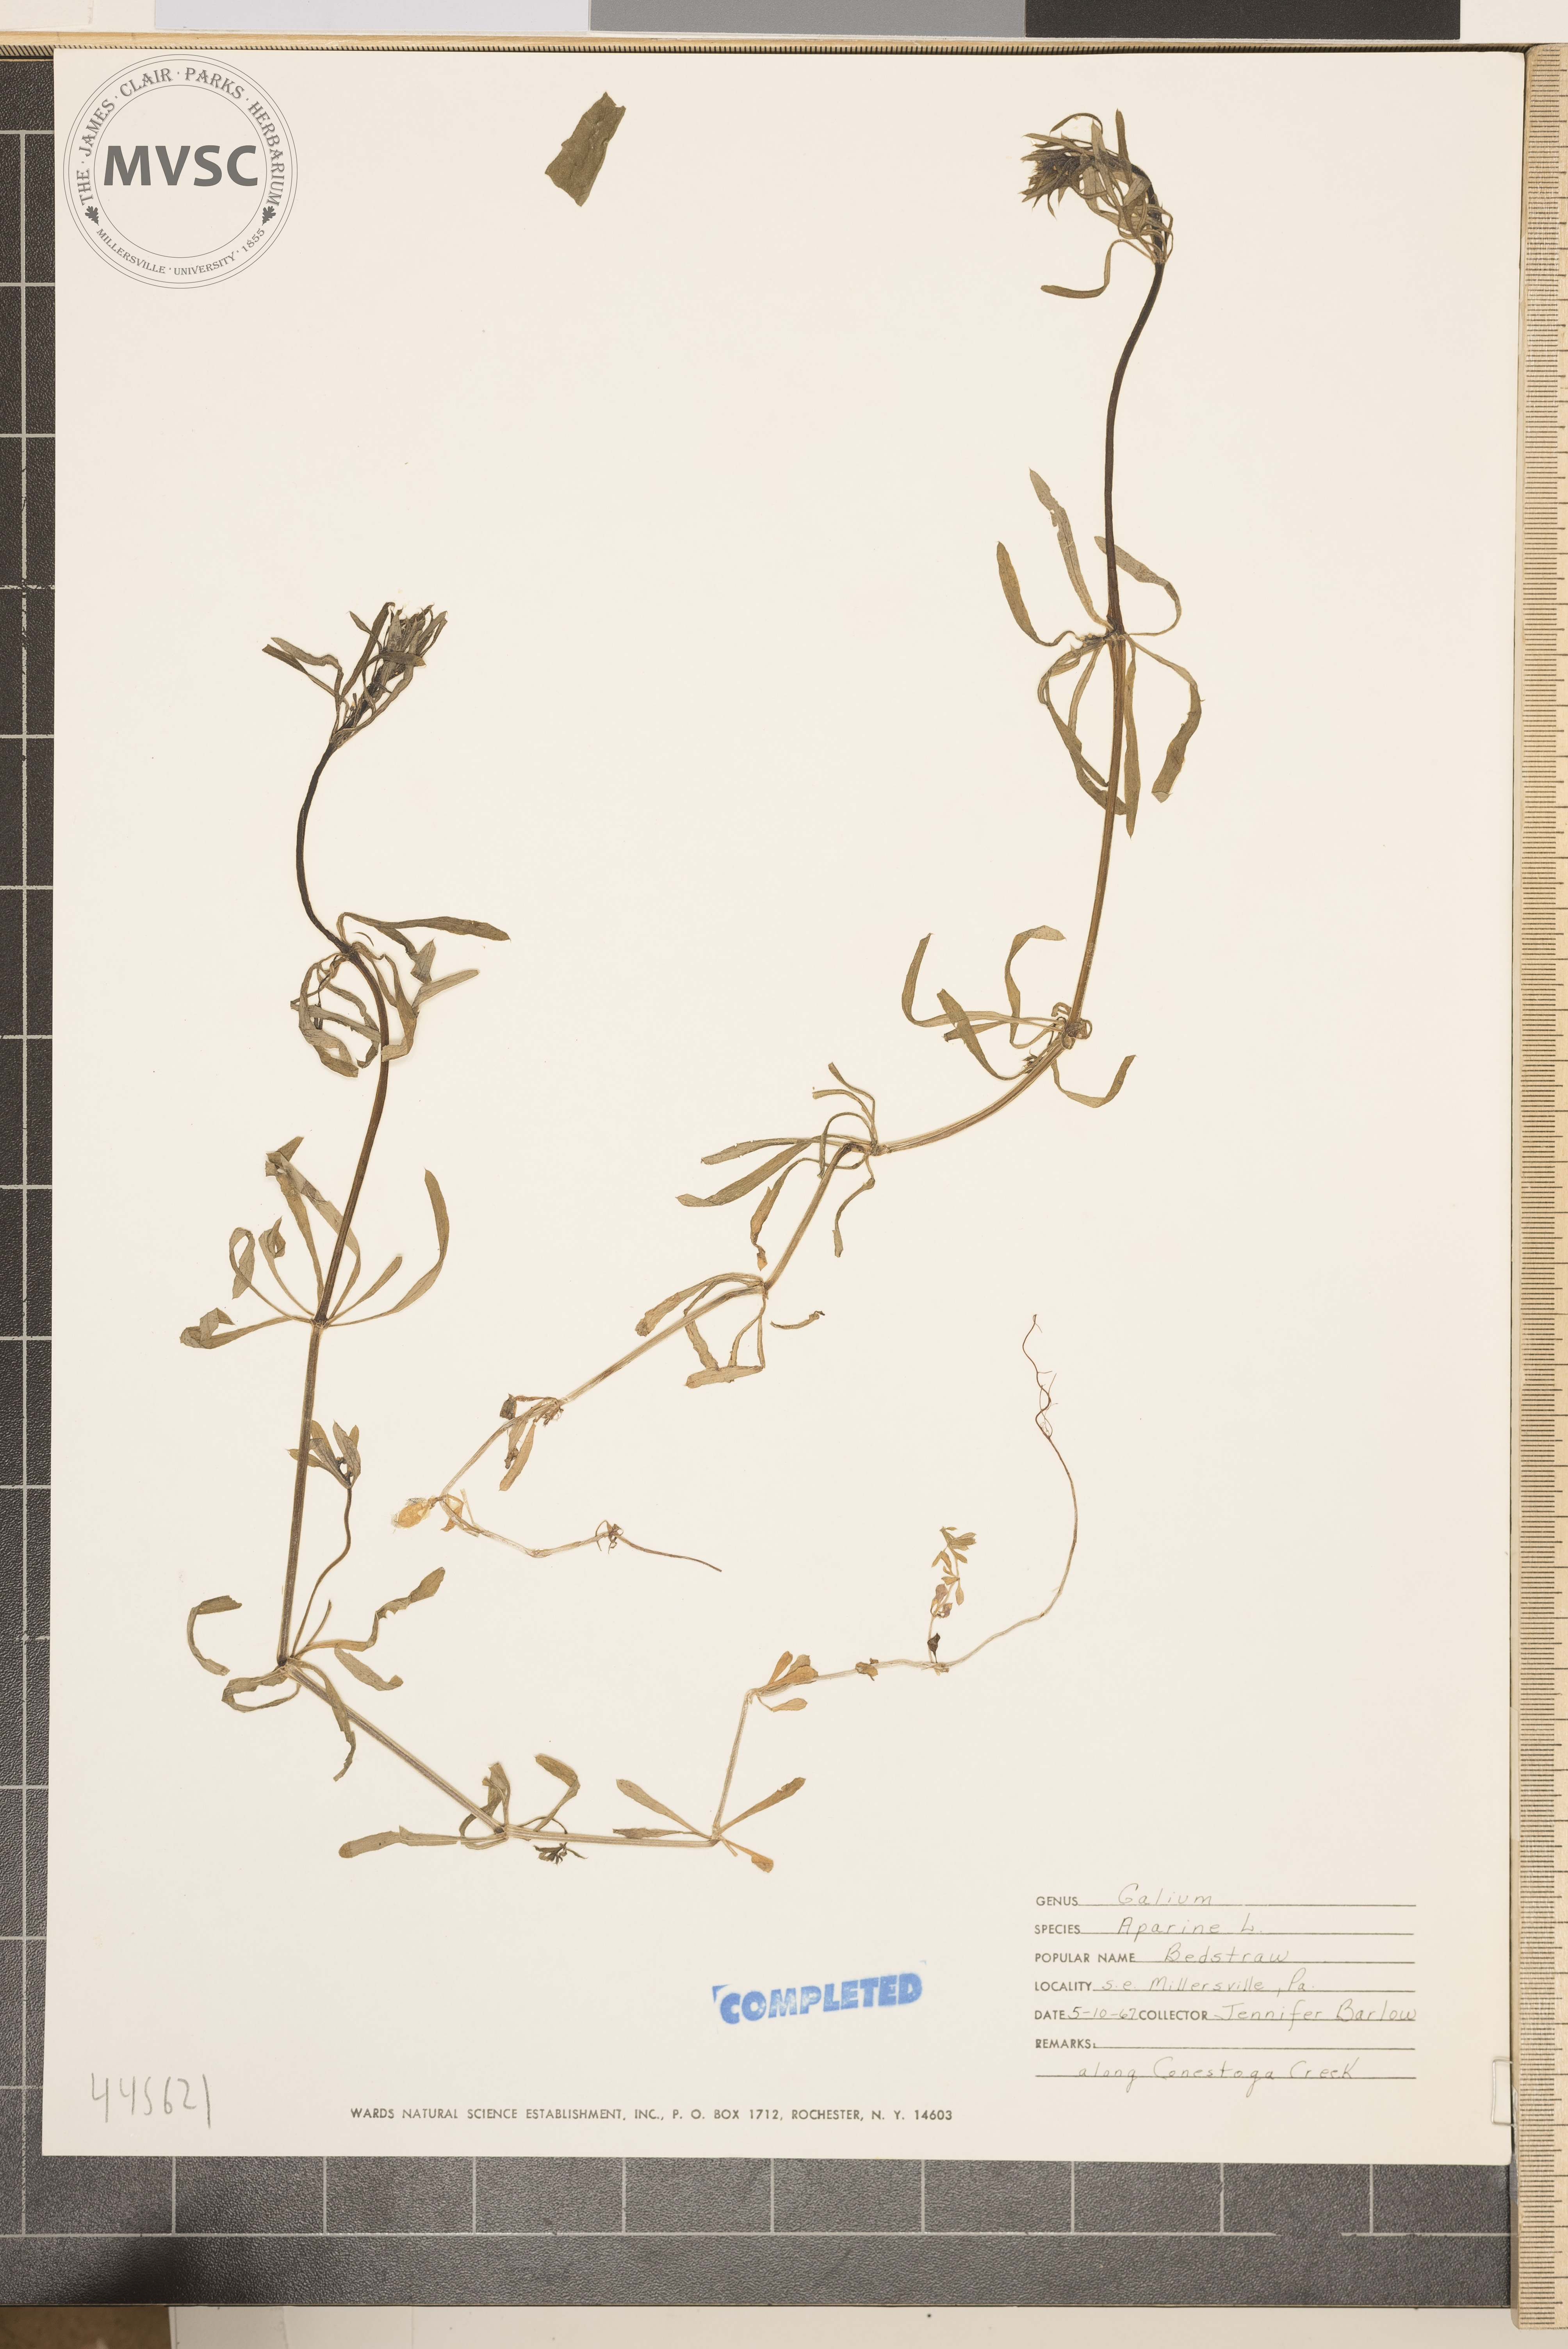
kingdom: Plantae
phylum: Tracheophyta
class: Magnoliopsida
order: Gentianales
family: Rubiaceae
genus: Galium
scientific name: Galium aparine
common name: Cleavers
